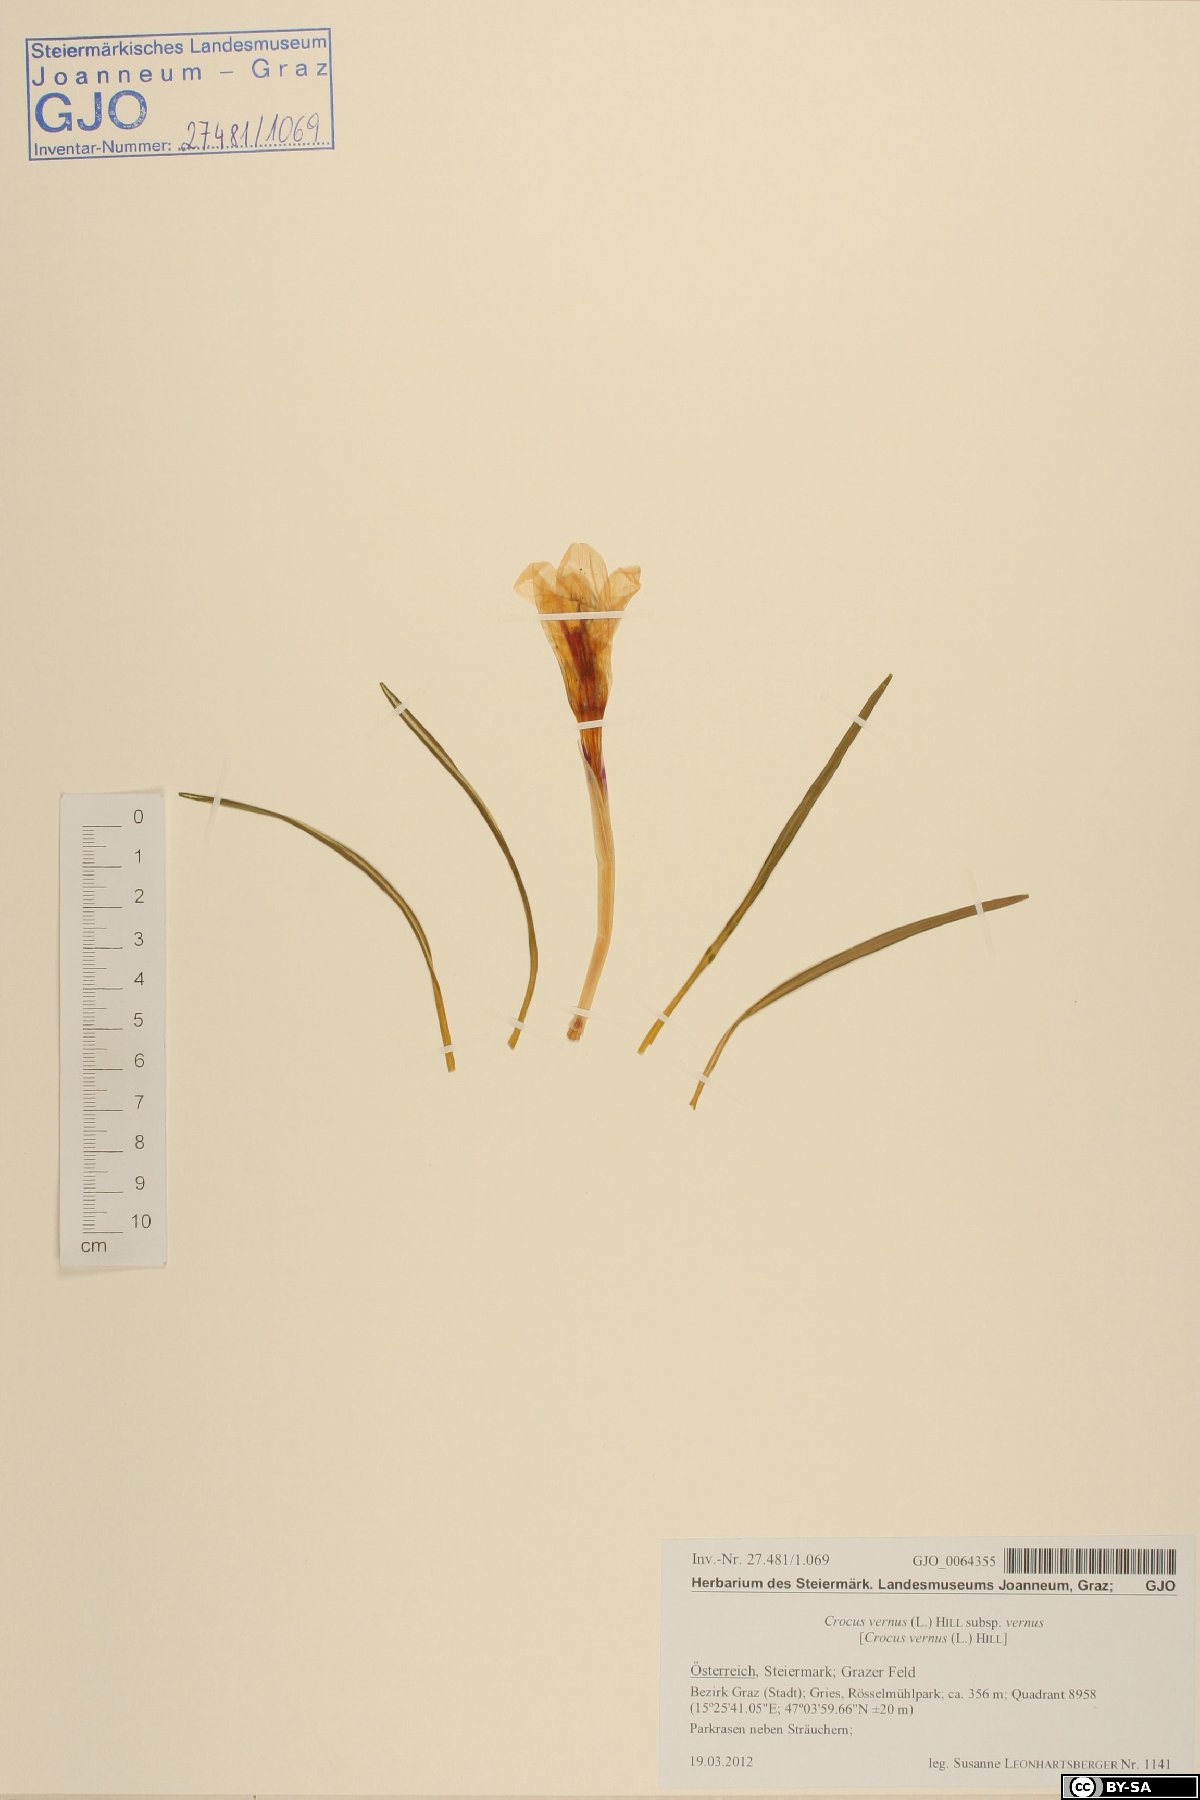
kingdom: Plantae
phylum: Tracheophyta
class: Liliopsida
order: Asparagales
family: Iridaceae
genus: Crocus
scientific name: Crocus vernus
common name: Spring crocus
